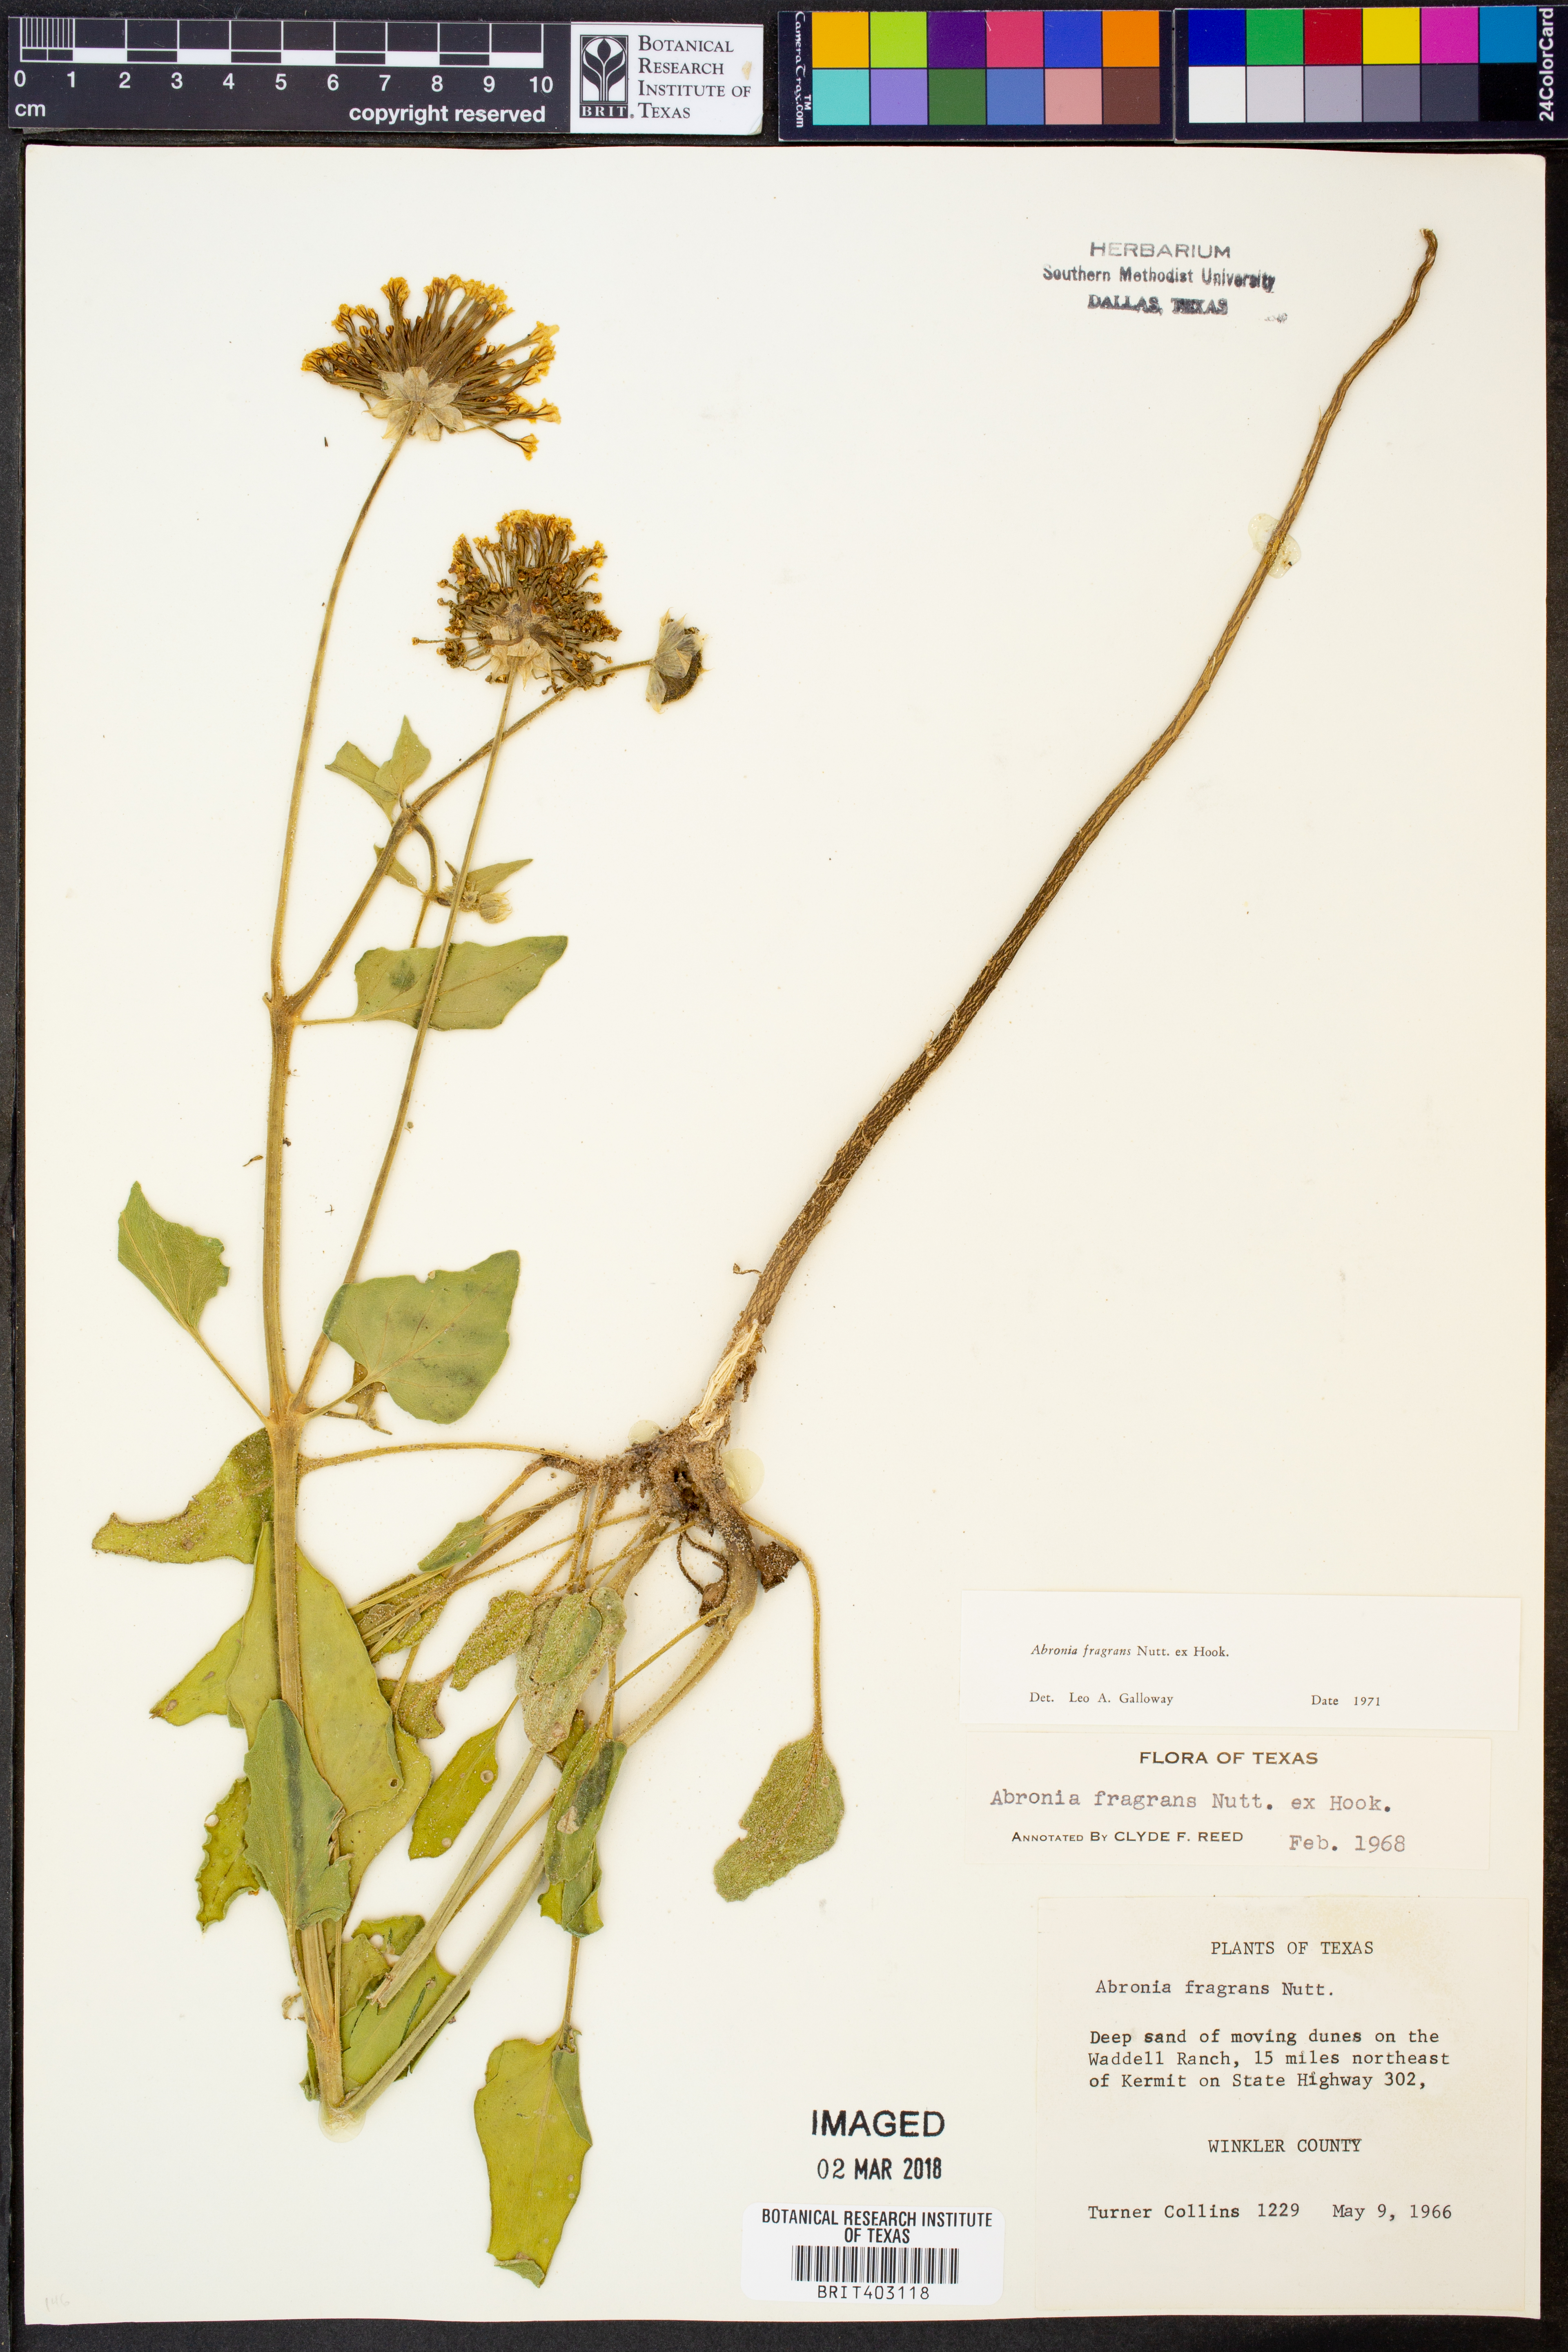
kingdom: Plantae
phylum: Tracheophyta
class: Magnoliopsida
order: Caryophyllales
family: Nyctaginaceae
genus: Abronia
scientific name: Abronia fragrans
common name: Fragrant sand-verbena
